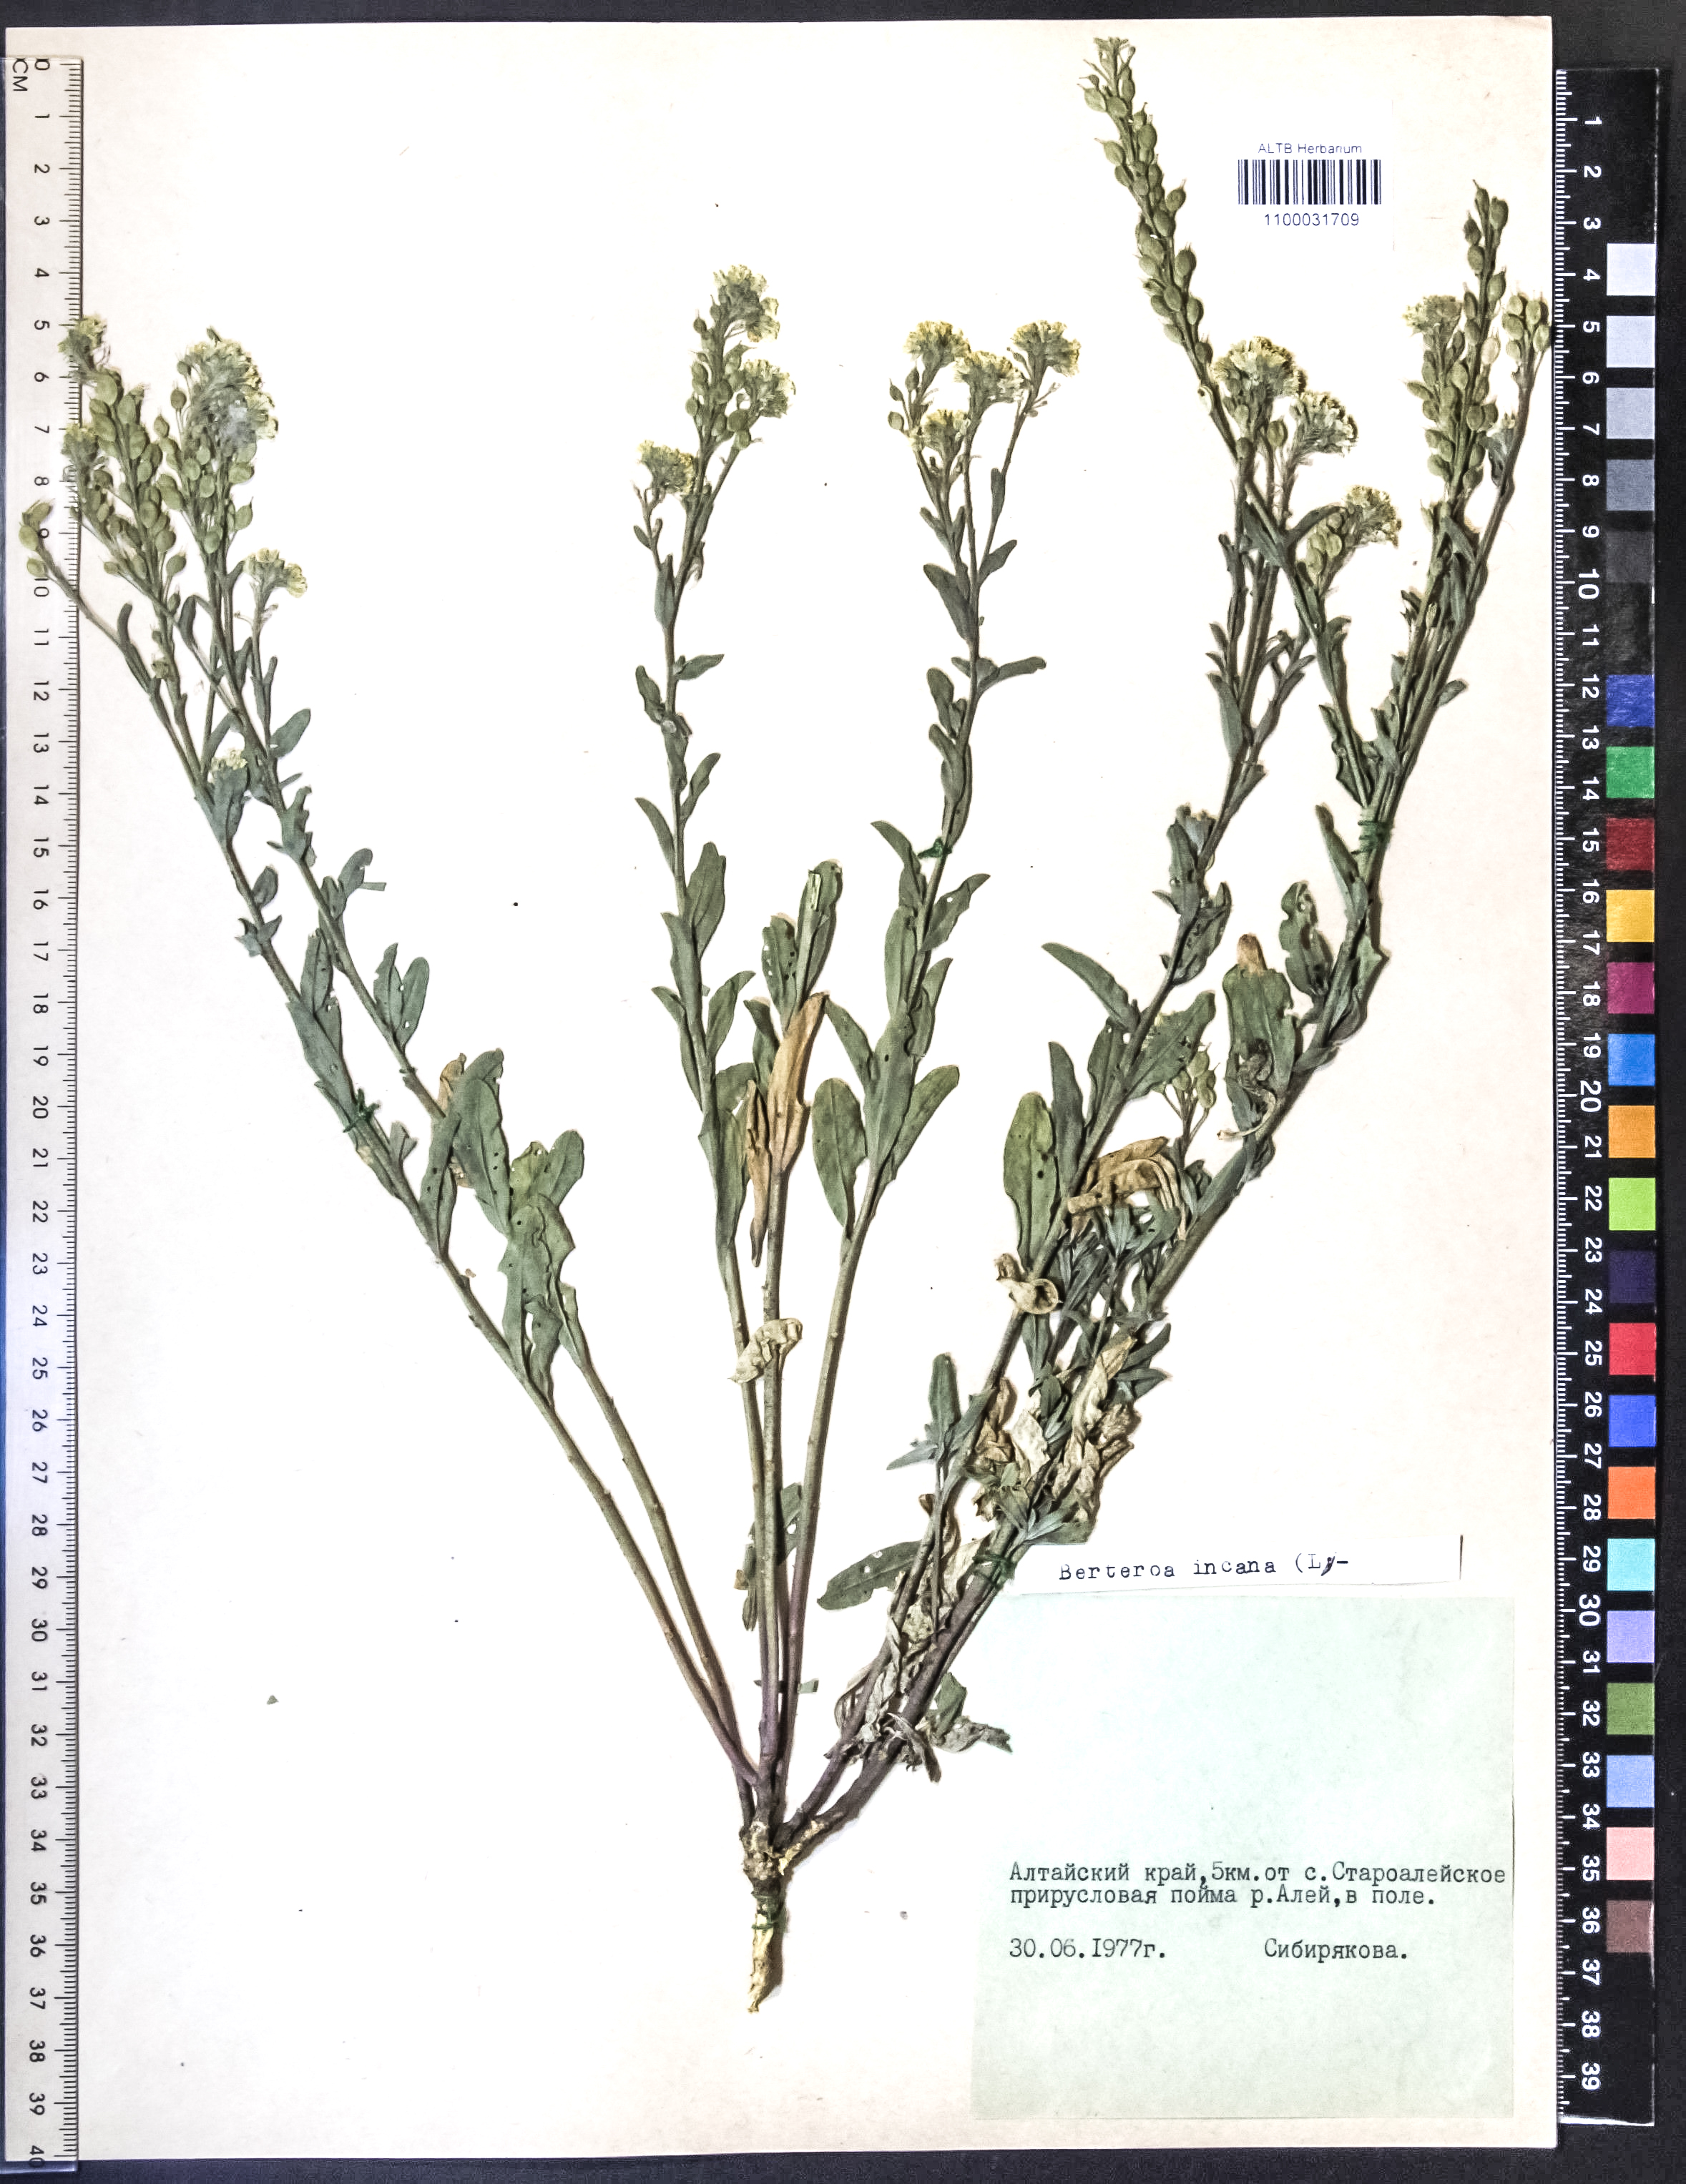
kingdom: Plantae
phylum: Tracheophyta
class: Magnoliopsida
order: Brassicales
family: Brassicaceae
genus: Berteroa
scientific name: Berteroa incana
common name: Hoary alison
